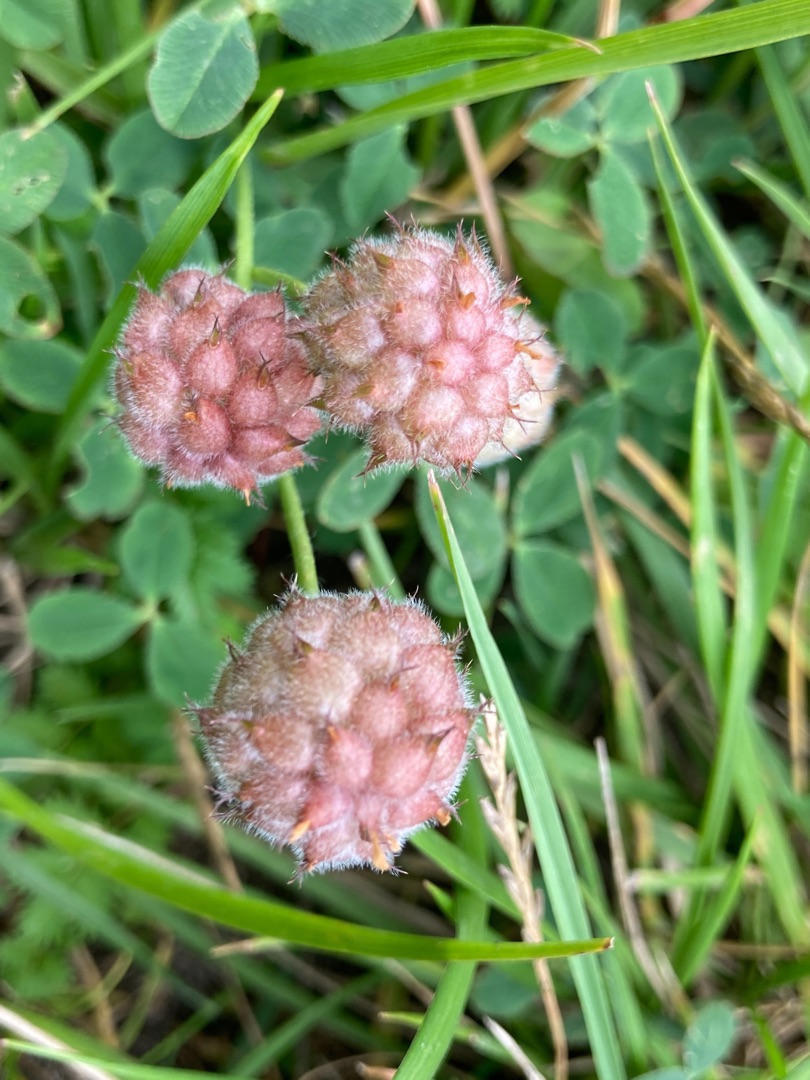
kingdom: Plantae
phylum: Tracheophyta
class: Magnoliopsida
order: Fabales
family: Fabaceae
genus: Trifolium
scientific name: Trifolium fragiferum
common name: Jordbær-kløver
